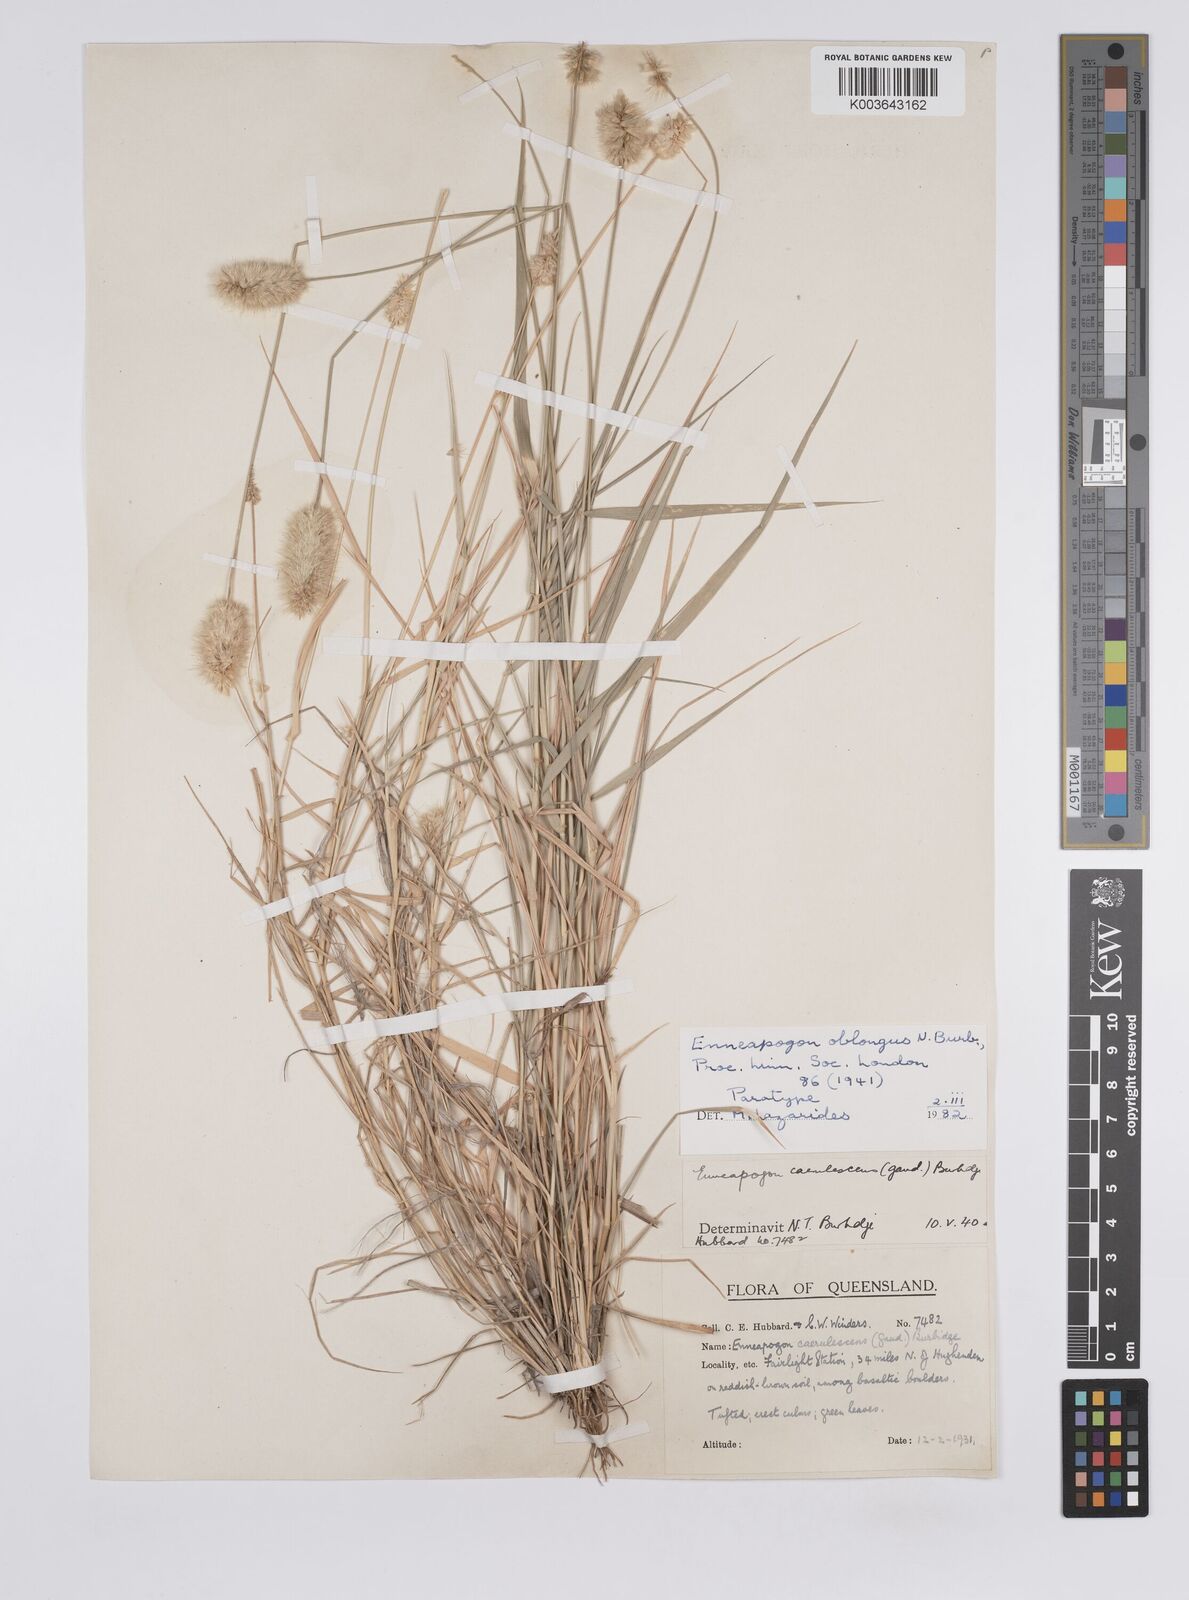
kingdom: Plantae
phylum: Tracheophyta
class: Liliopsida
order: Poales
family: Poaceae
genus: Enneapogon
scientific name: Enneapogon lindleyanus
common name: Conetop nineawn
